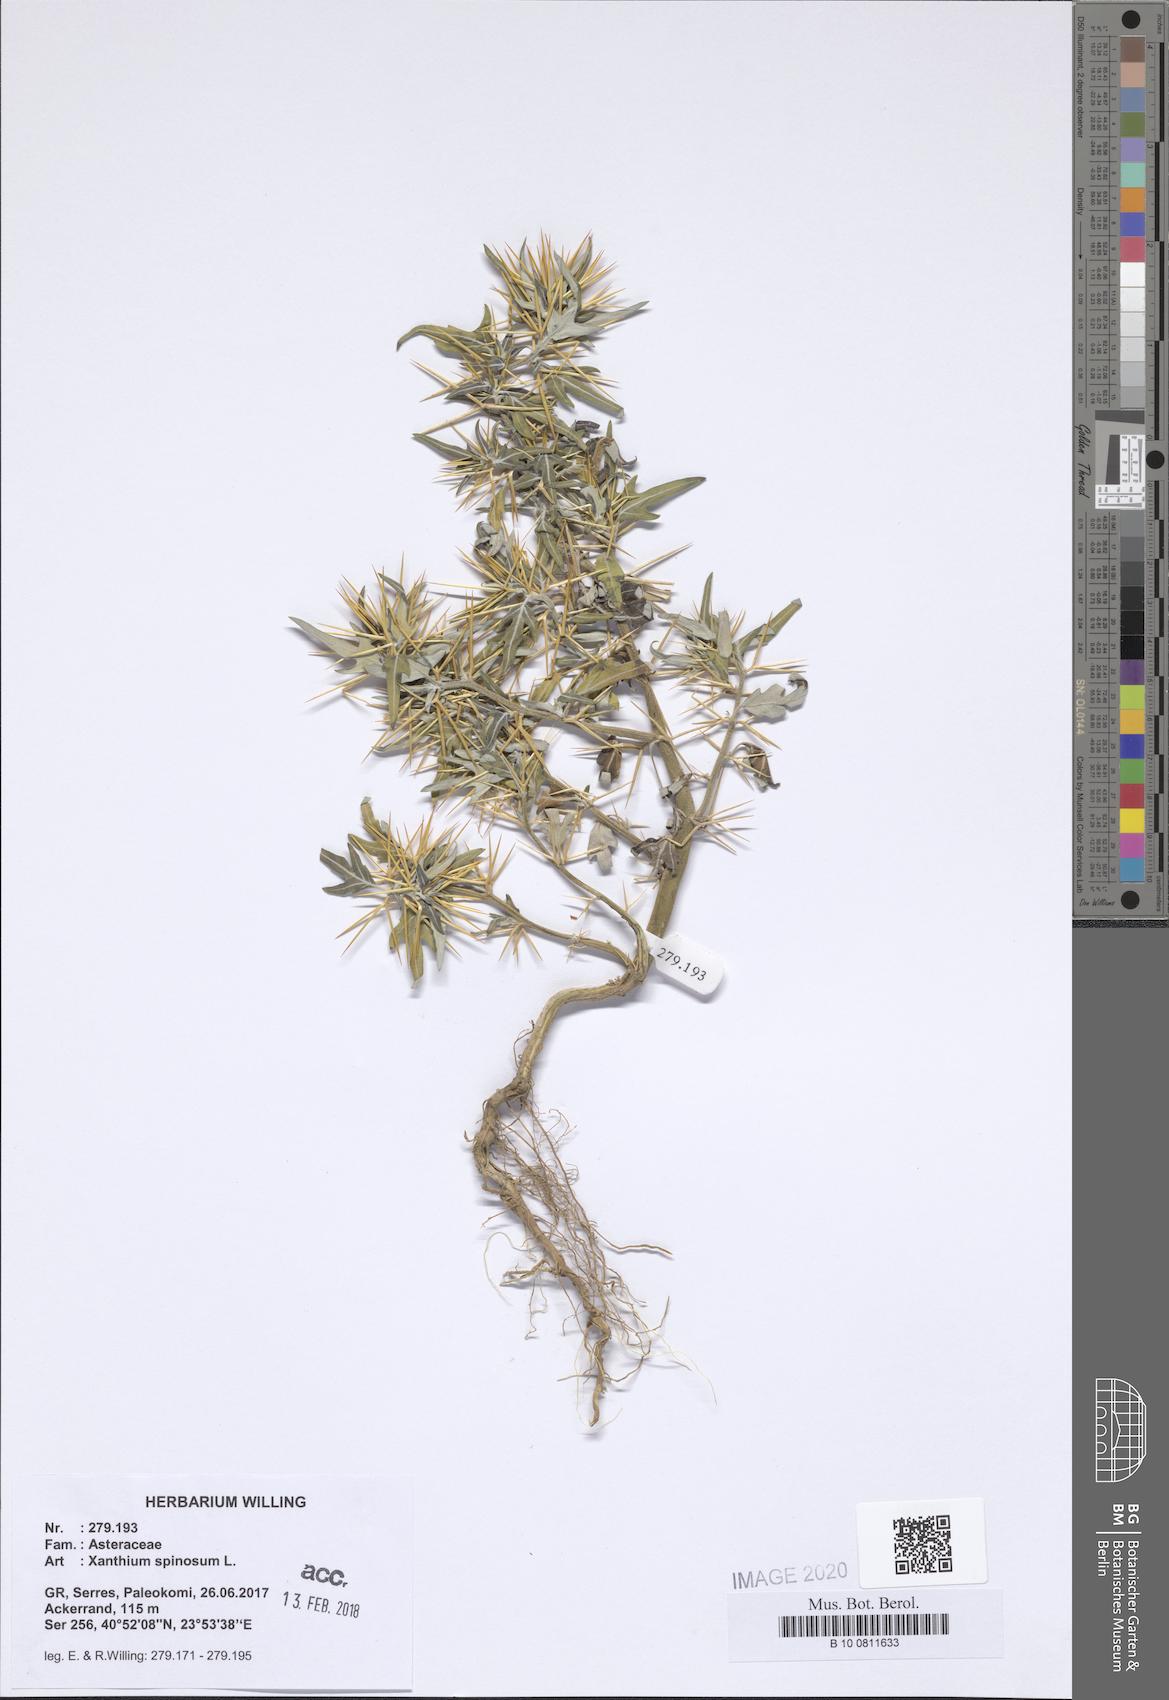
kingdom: Plantae
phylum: Tracheophyta
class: Magnoliopsida
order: Asterales
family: Asteraceae
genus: Xanthium
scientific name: Xanthium spinosum
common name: Spiny cocklebur
